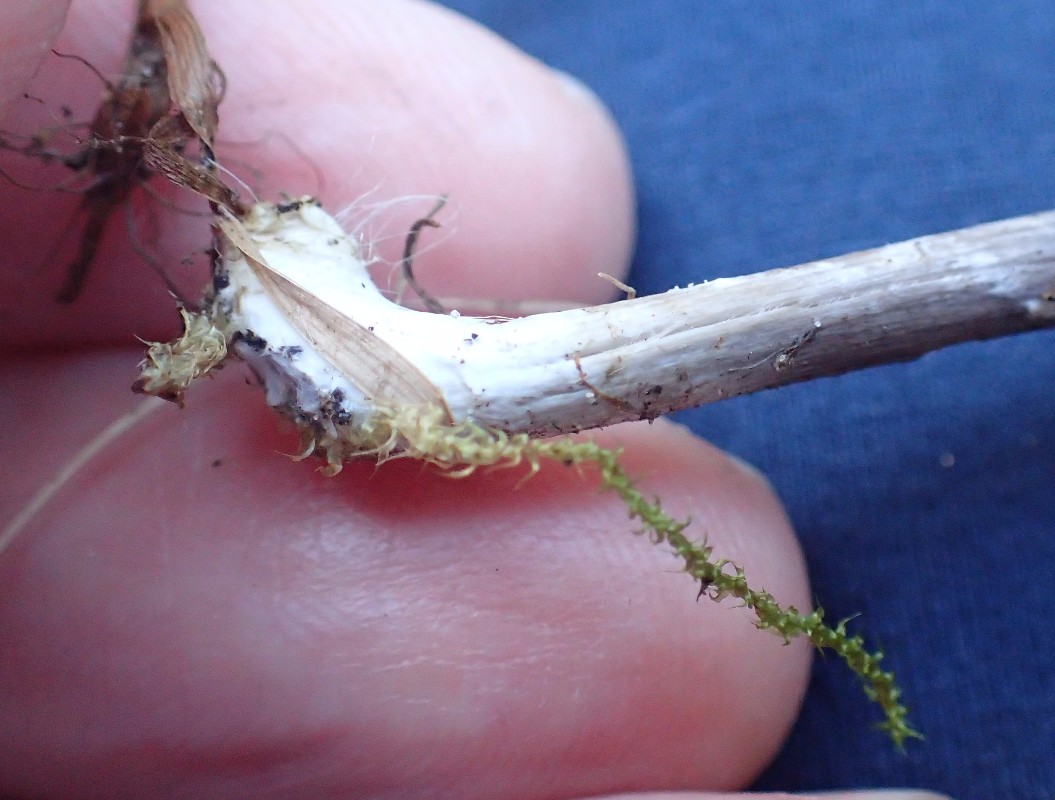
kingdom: Fungi
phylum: Basidiomycota
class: Agaricomycetes
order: Agaricales
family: Entolomataceae
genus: Entoloma
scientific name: Entoloma chalybeum
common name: blåbladet rødblad
